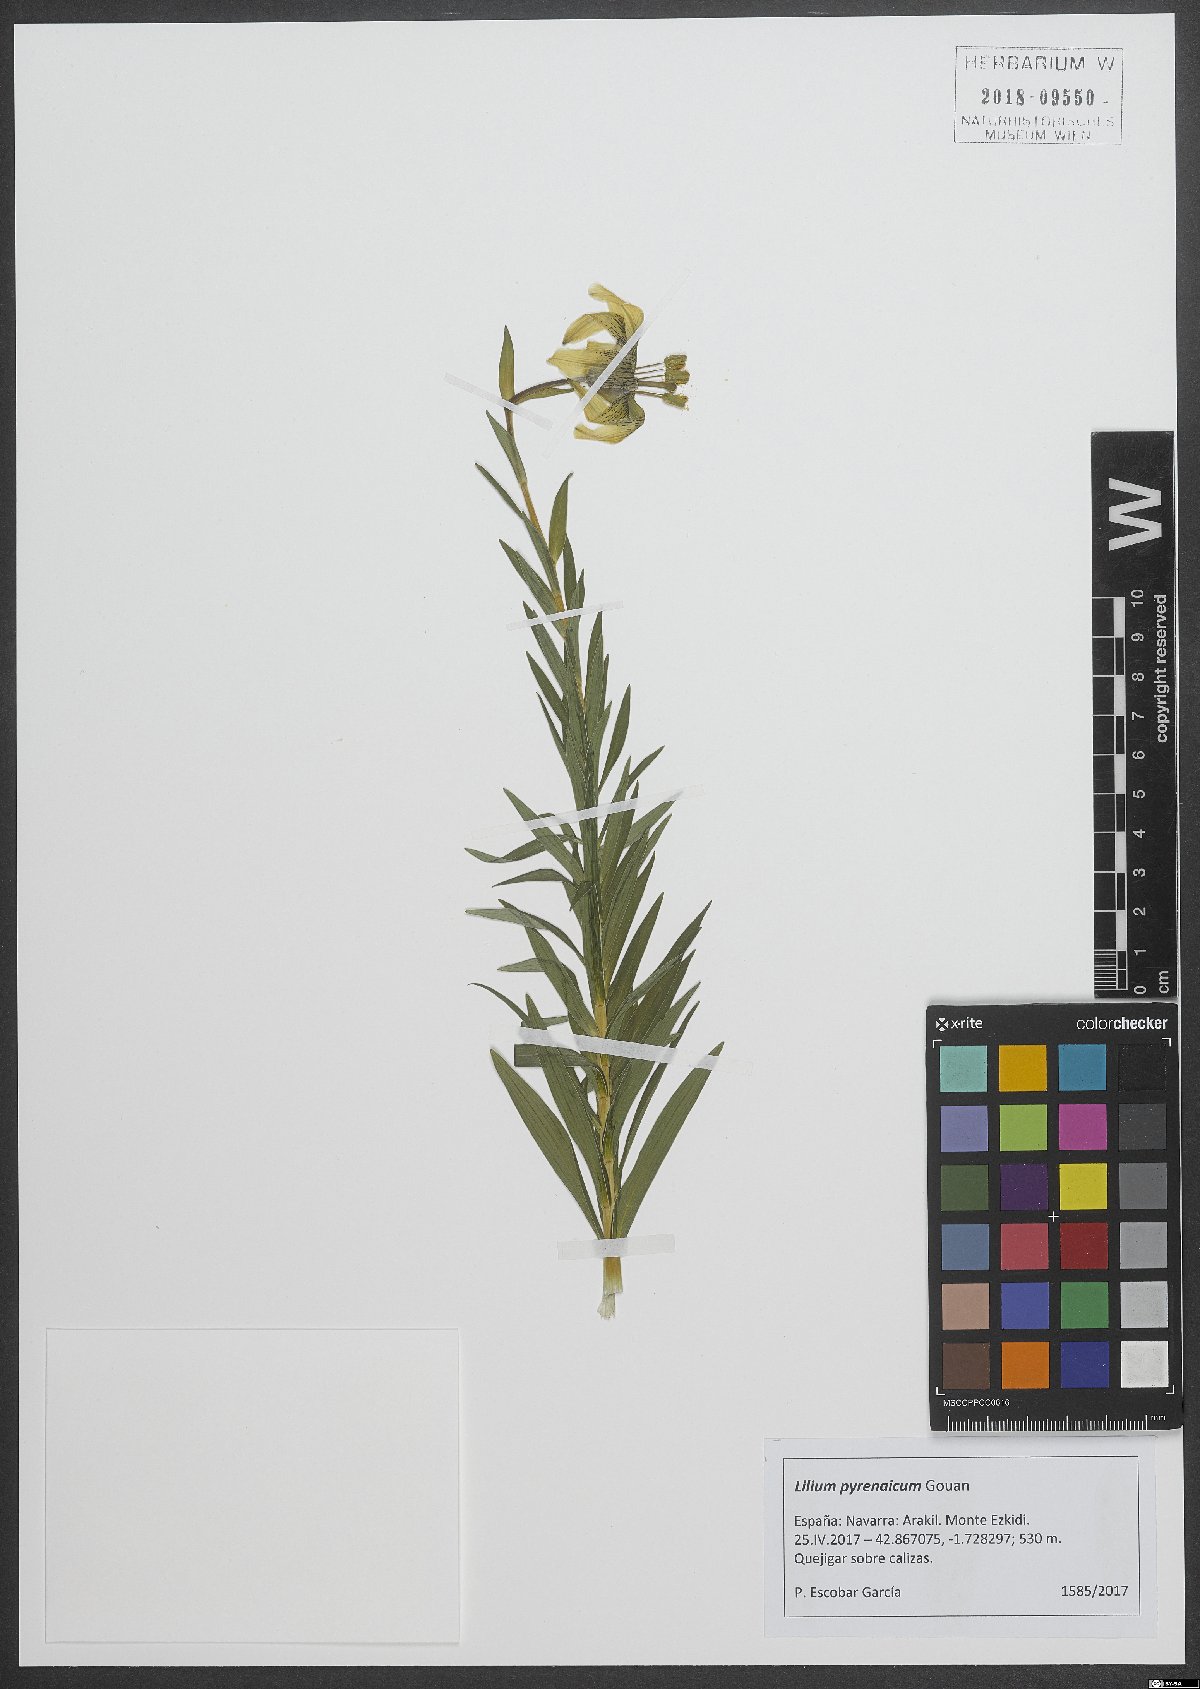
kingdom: Plantae
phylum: Tracheophyta
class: Magnoliopsida
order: Malpighiales
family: Linaceae
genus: Linum
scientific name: Linum bienne
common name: Pale flax
